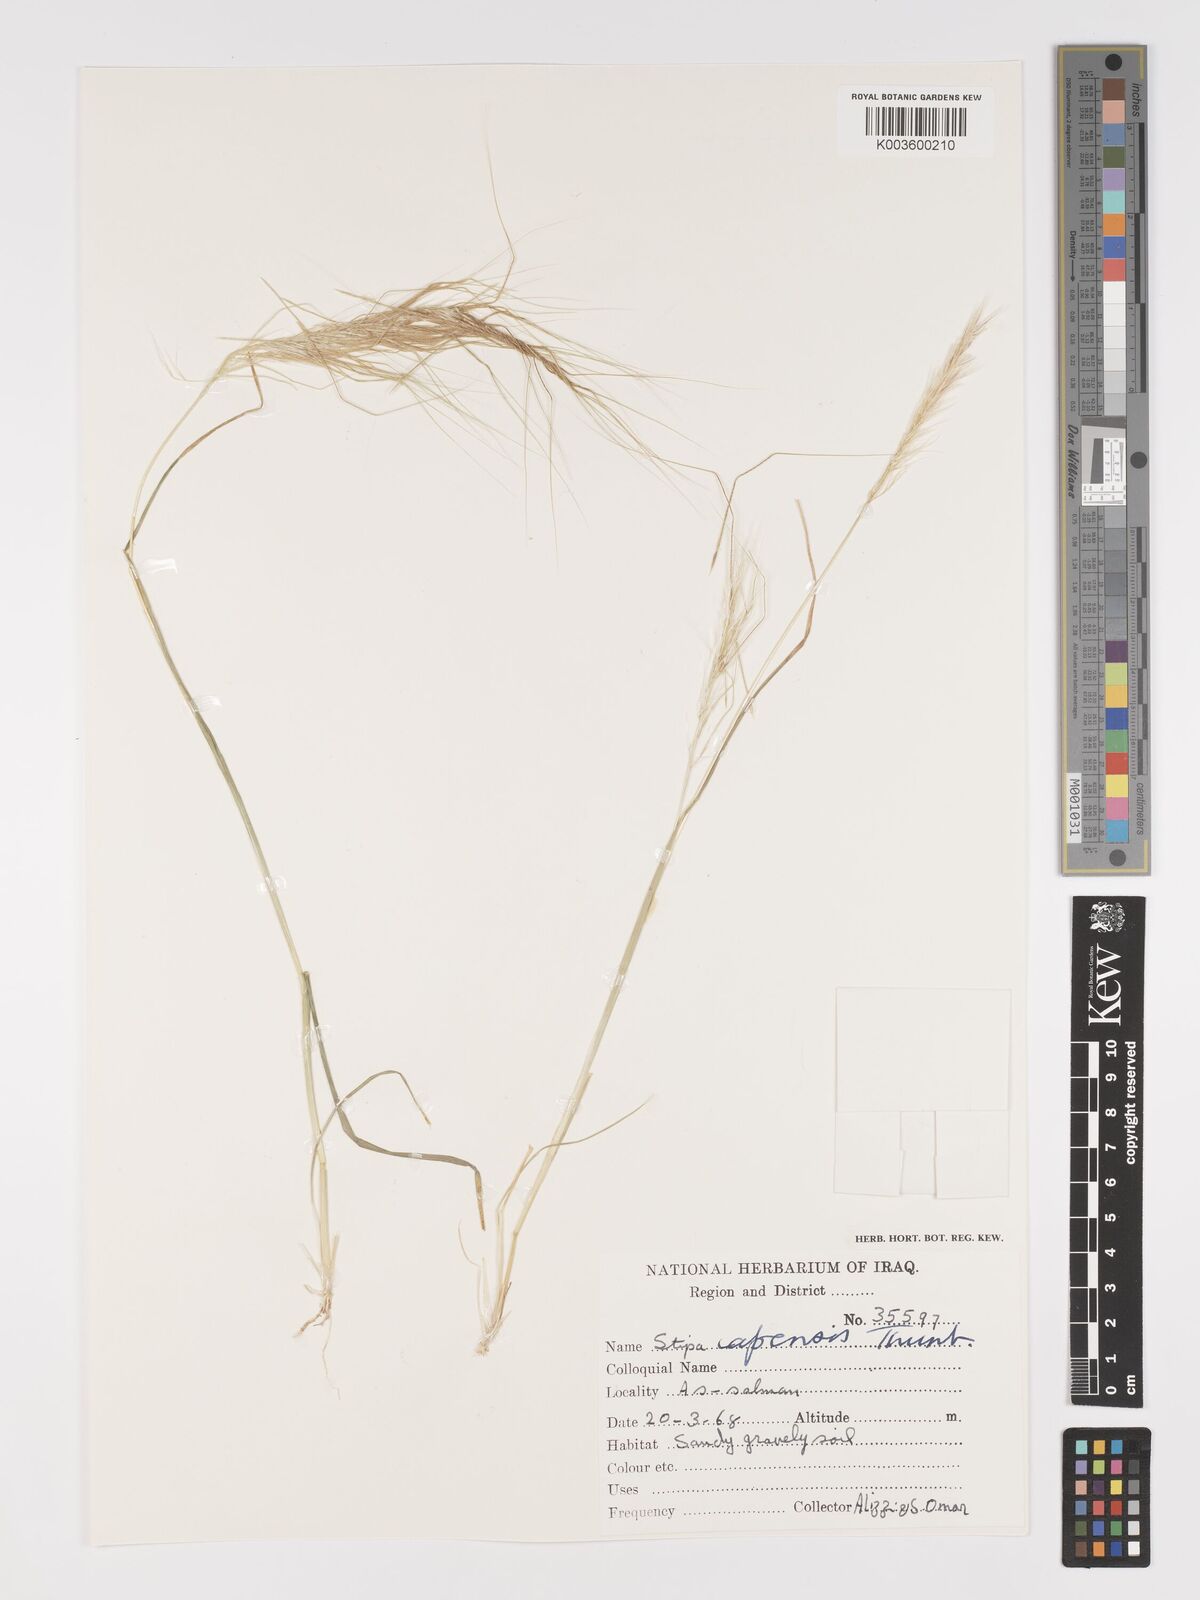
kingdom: Plantae
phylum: Tracheophyta
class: Liliopsida
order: Poales
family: Poaceae
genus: Stipellula
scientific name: Stipellula capensis
